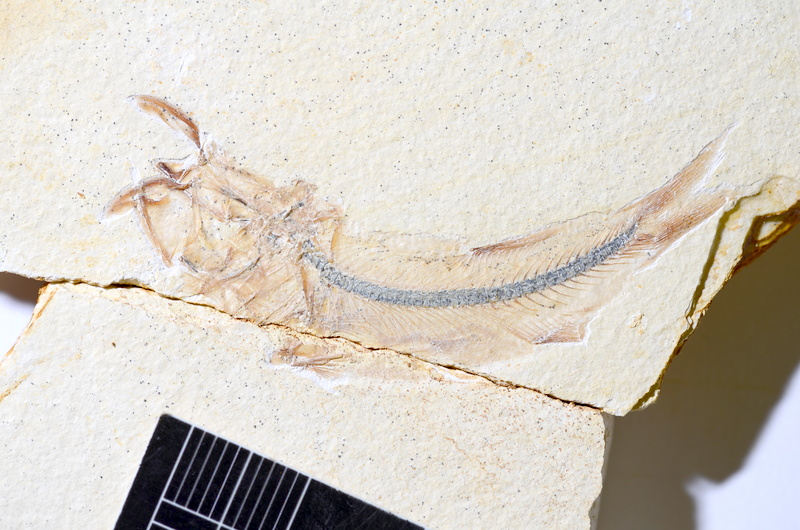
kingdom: Animalia
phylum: Chordata
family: Ascalaboidae
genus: Ebertichthys
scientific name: Ebertichthys ettlingensis
